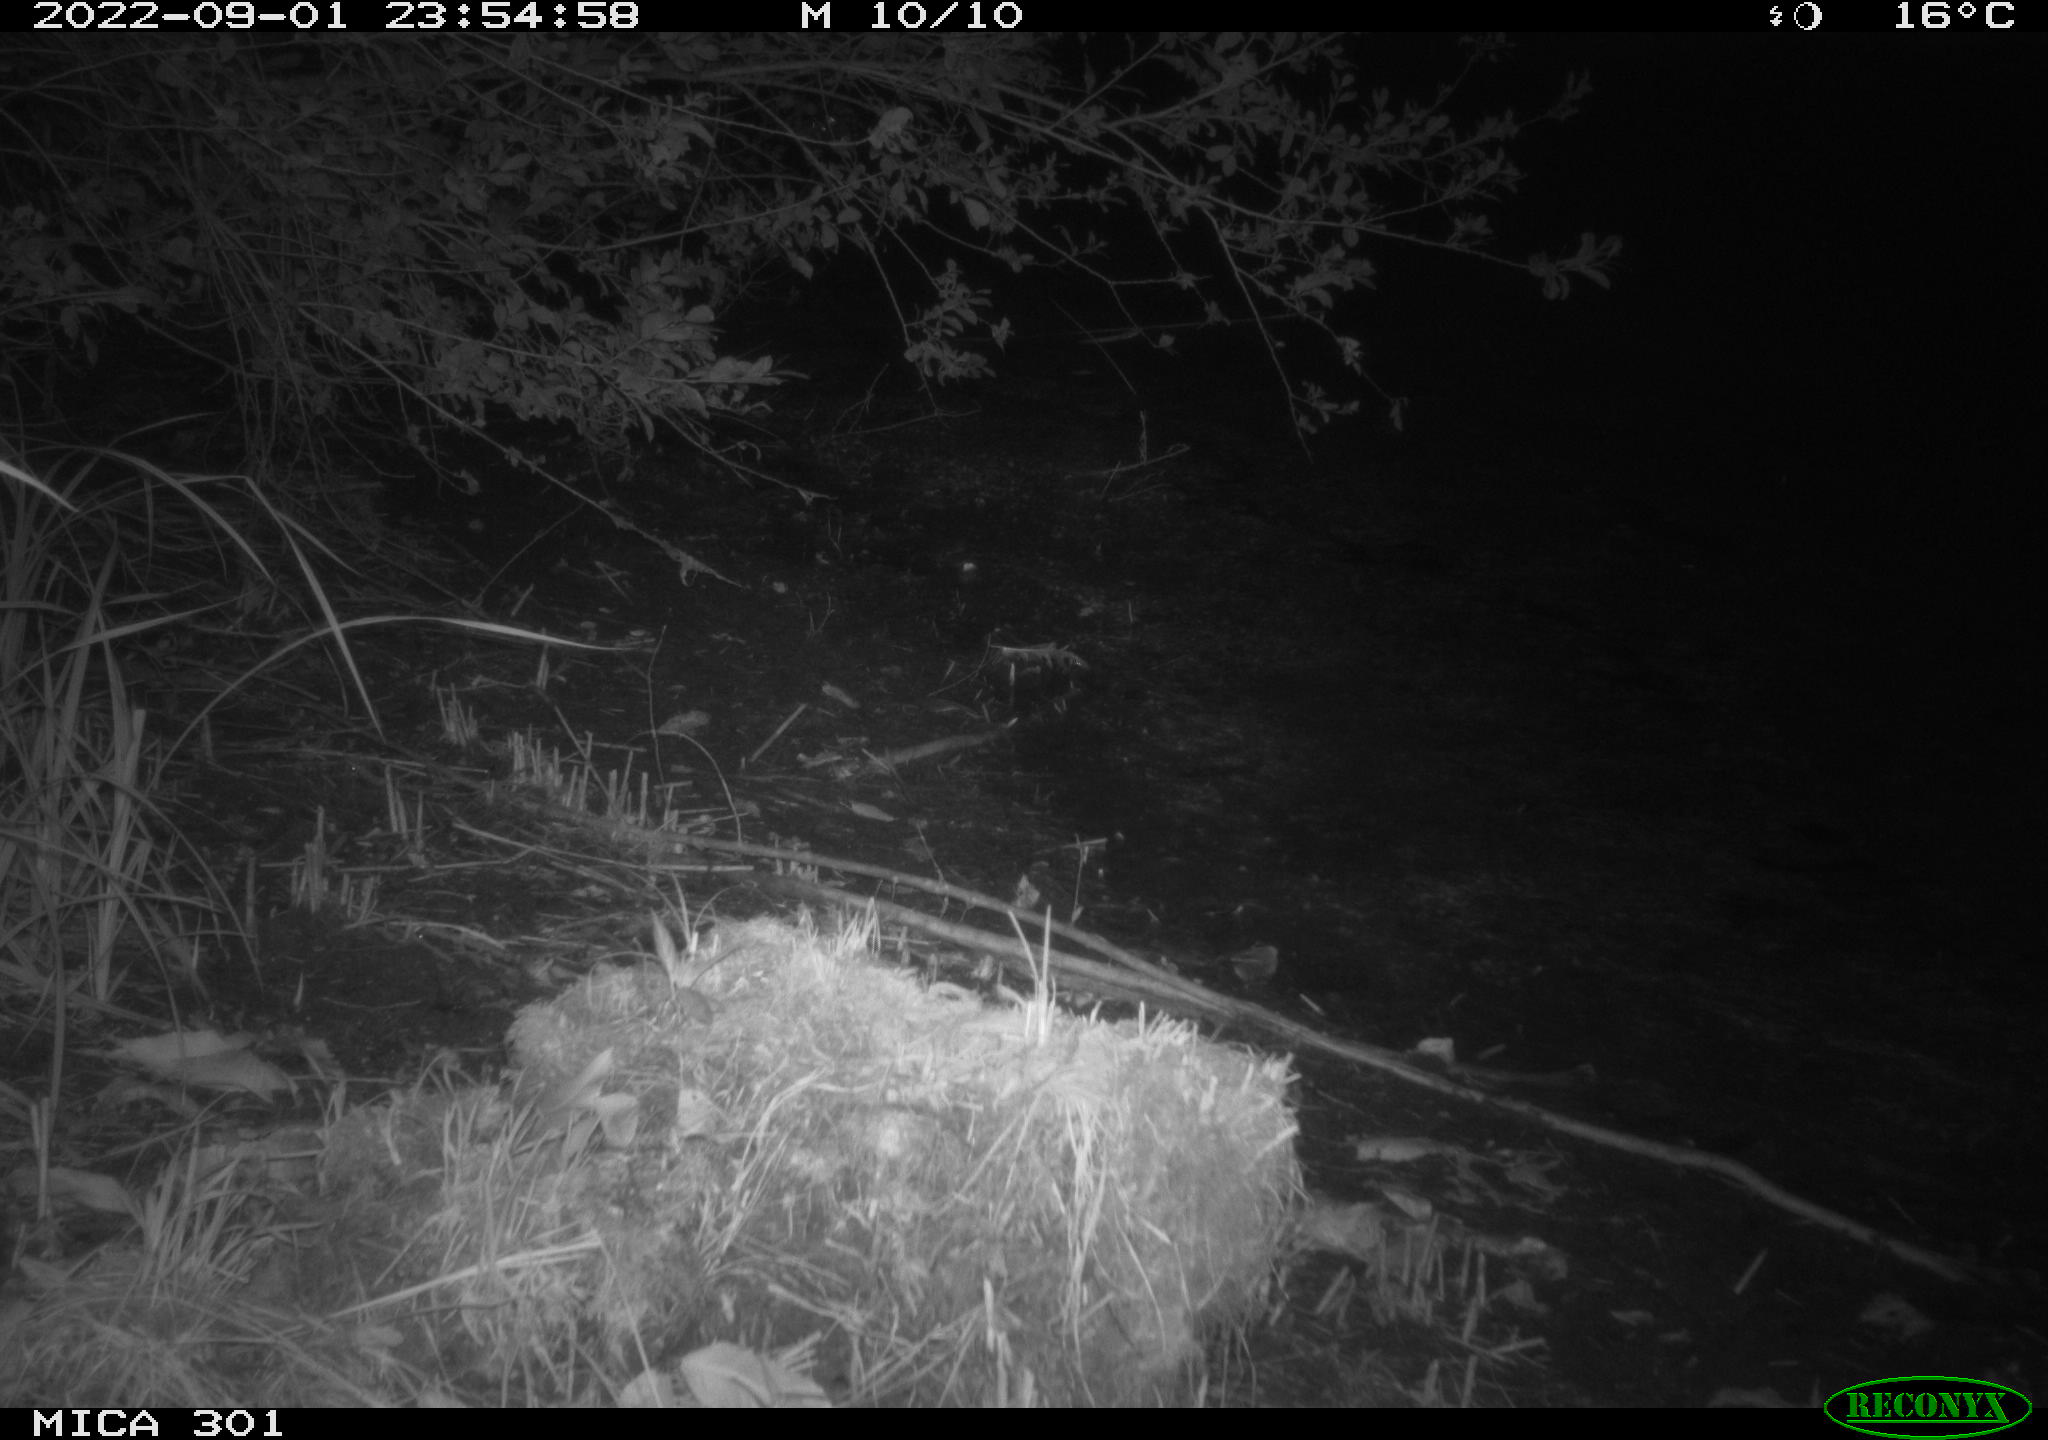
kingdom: Animalia
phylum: Chordata
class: Mammalia
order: Carnivora
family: Canidae
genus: Vulpes
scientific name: Vulpes vulpes
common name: Red fox
